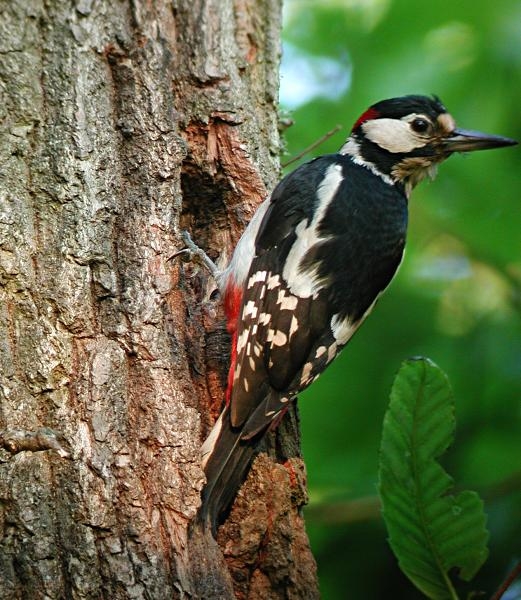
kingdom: Animalia
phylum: Chordata
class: Aves
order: Piciformes
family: Picidae
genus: Dendrocopos
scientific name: Dendrocopos major
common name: Stor flagspætte
